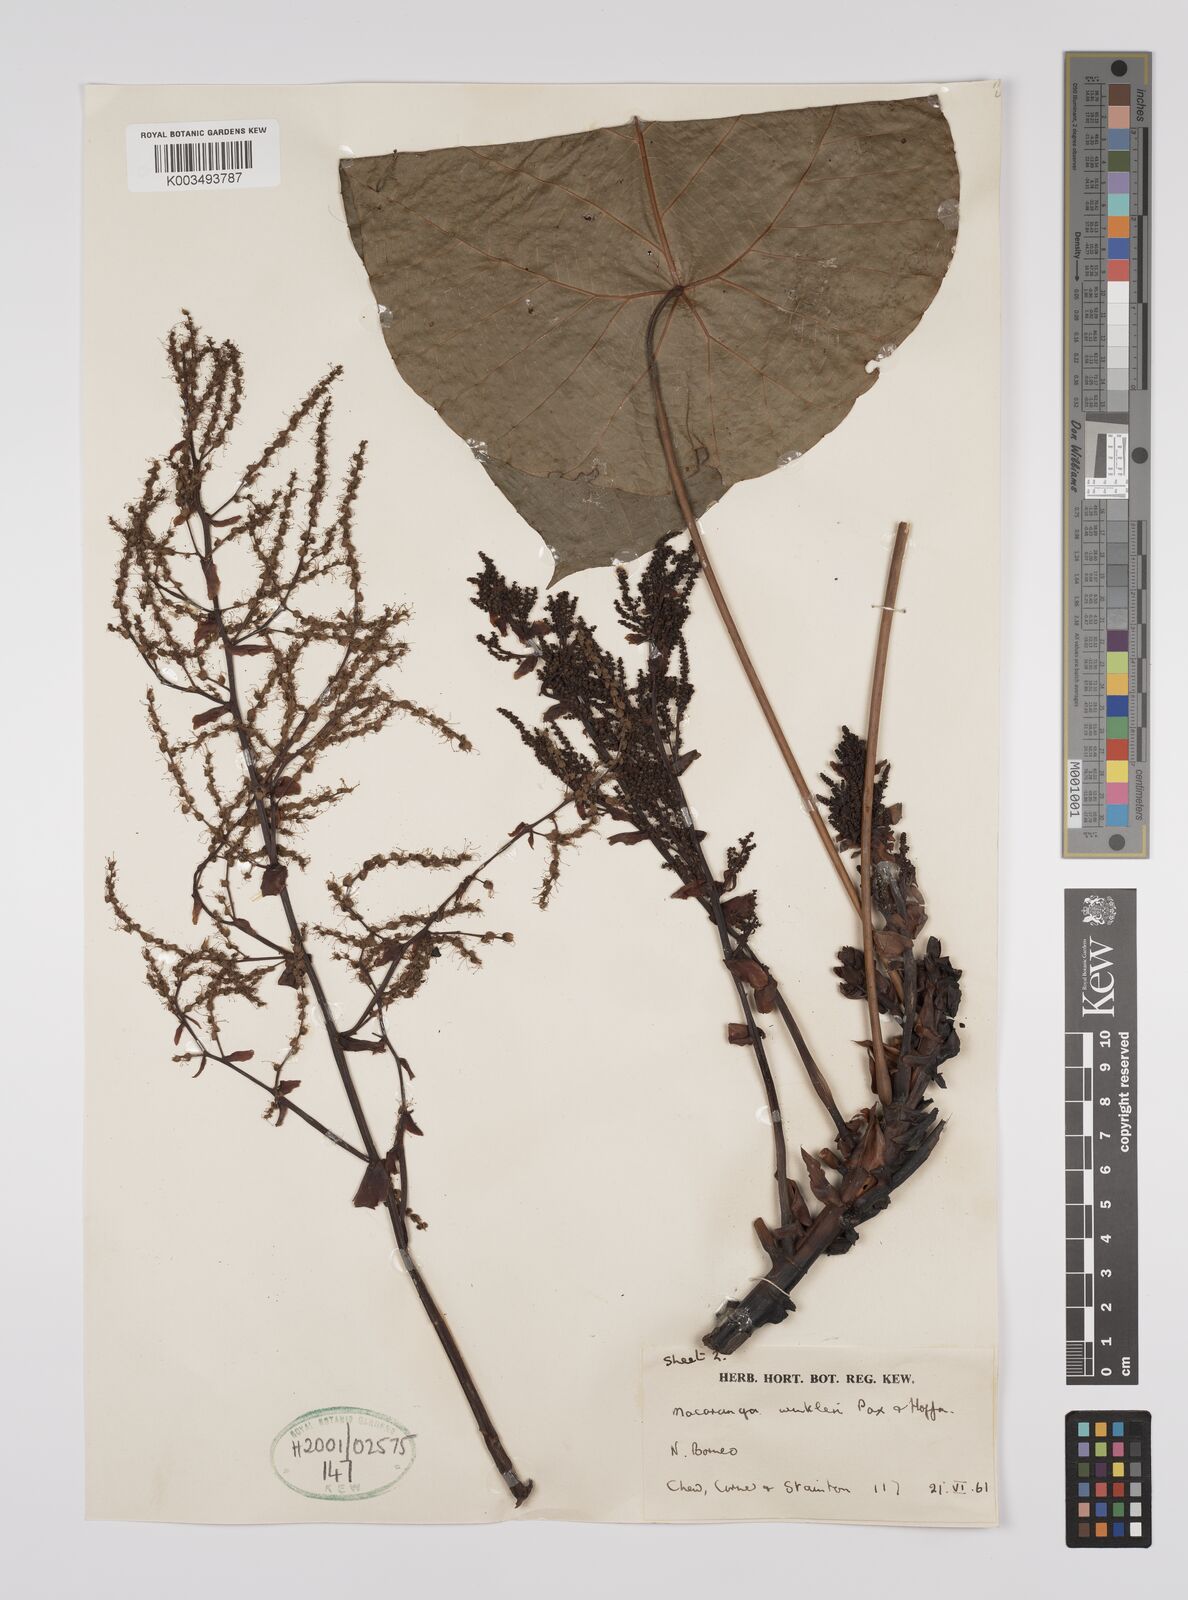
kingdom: Plantae
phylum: Tracheophyta
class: Magnoliopsida
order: Malpighiales
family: Euphorbiaceae
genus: Macaranga
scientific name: Macaranga winkleri
